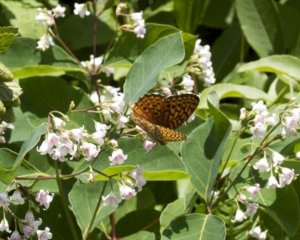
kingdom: Animalia
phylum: Arthropoda
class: Insecta
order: Lepidoptera
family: Nymphalidae
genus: Speyeria
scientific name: Speyeria atlantis
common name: Atlantis Fritillary
